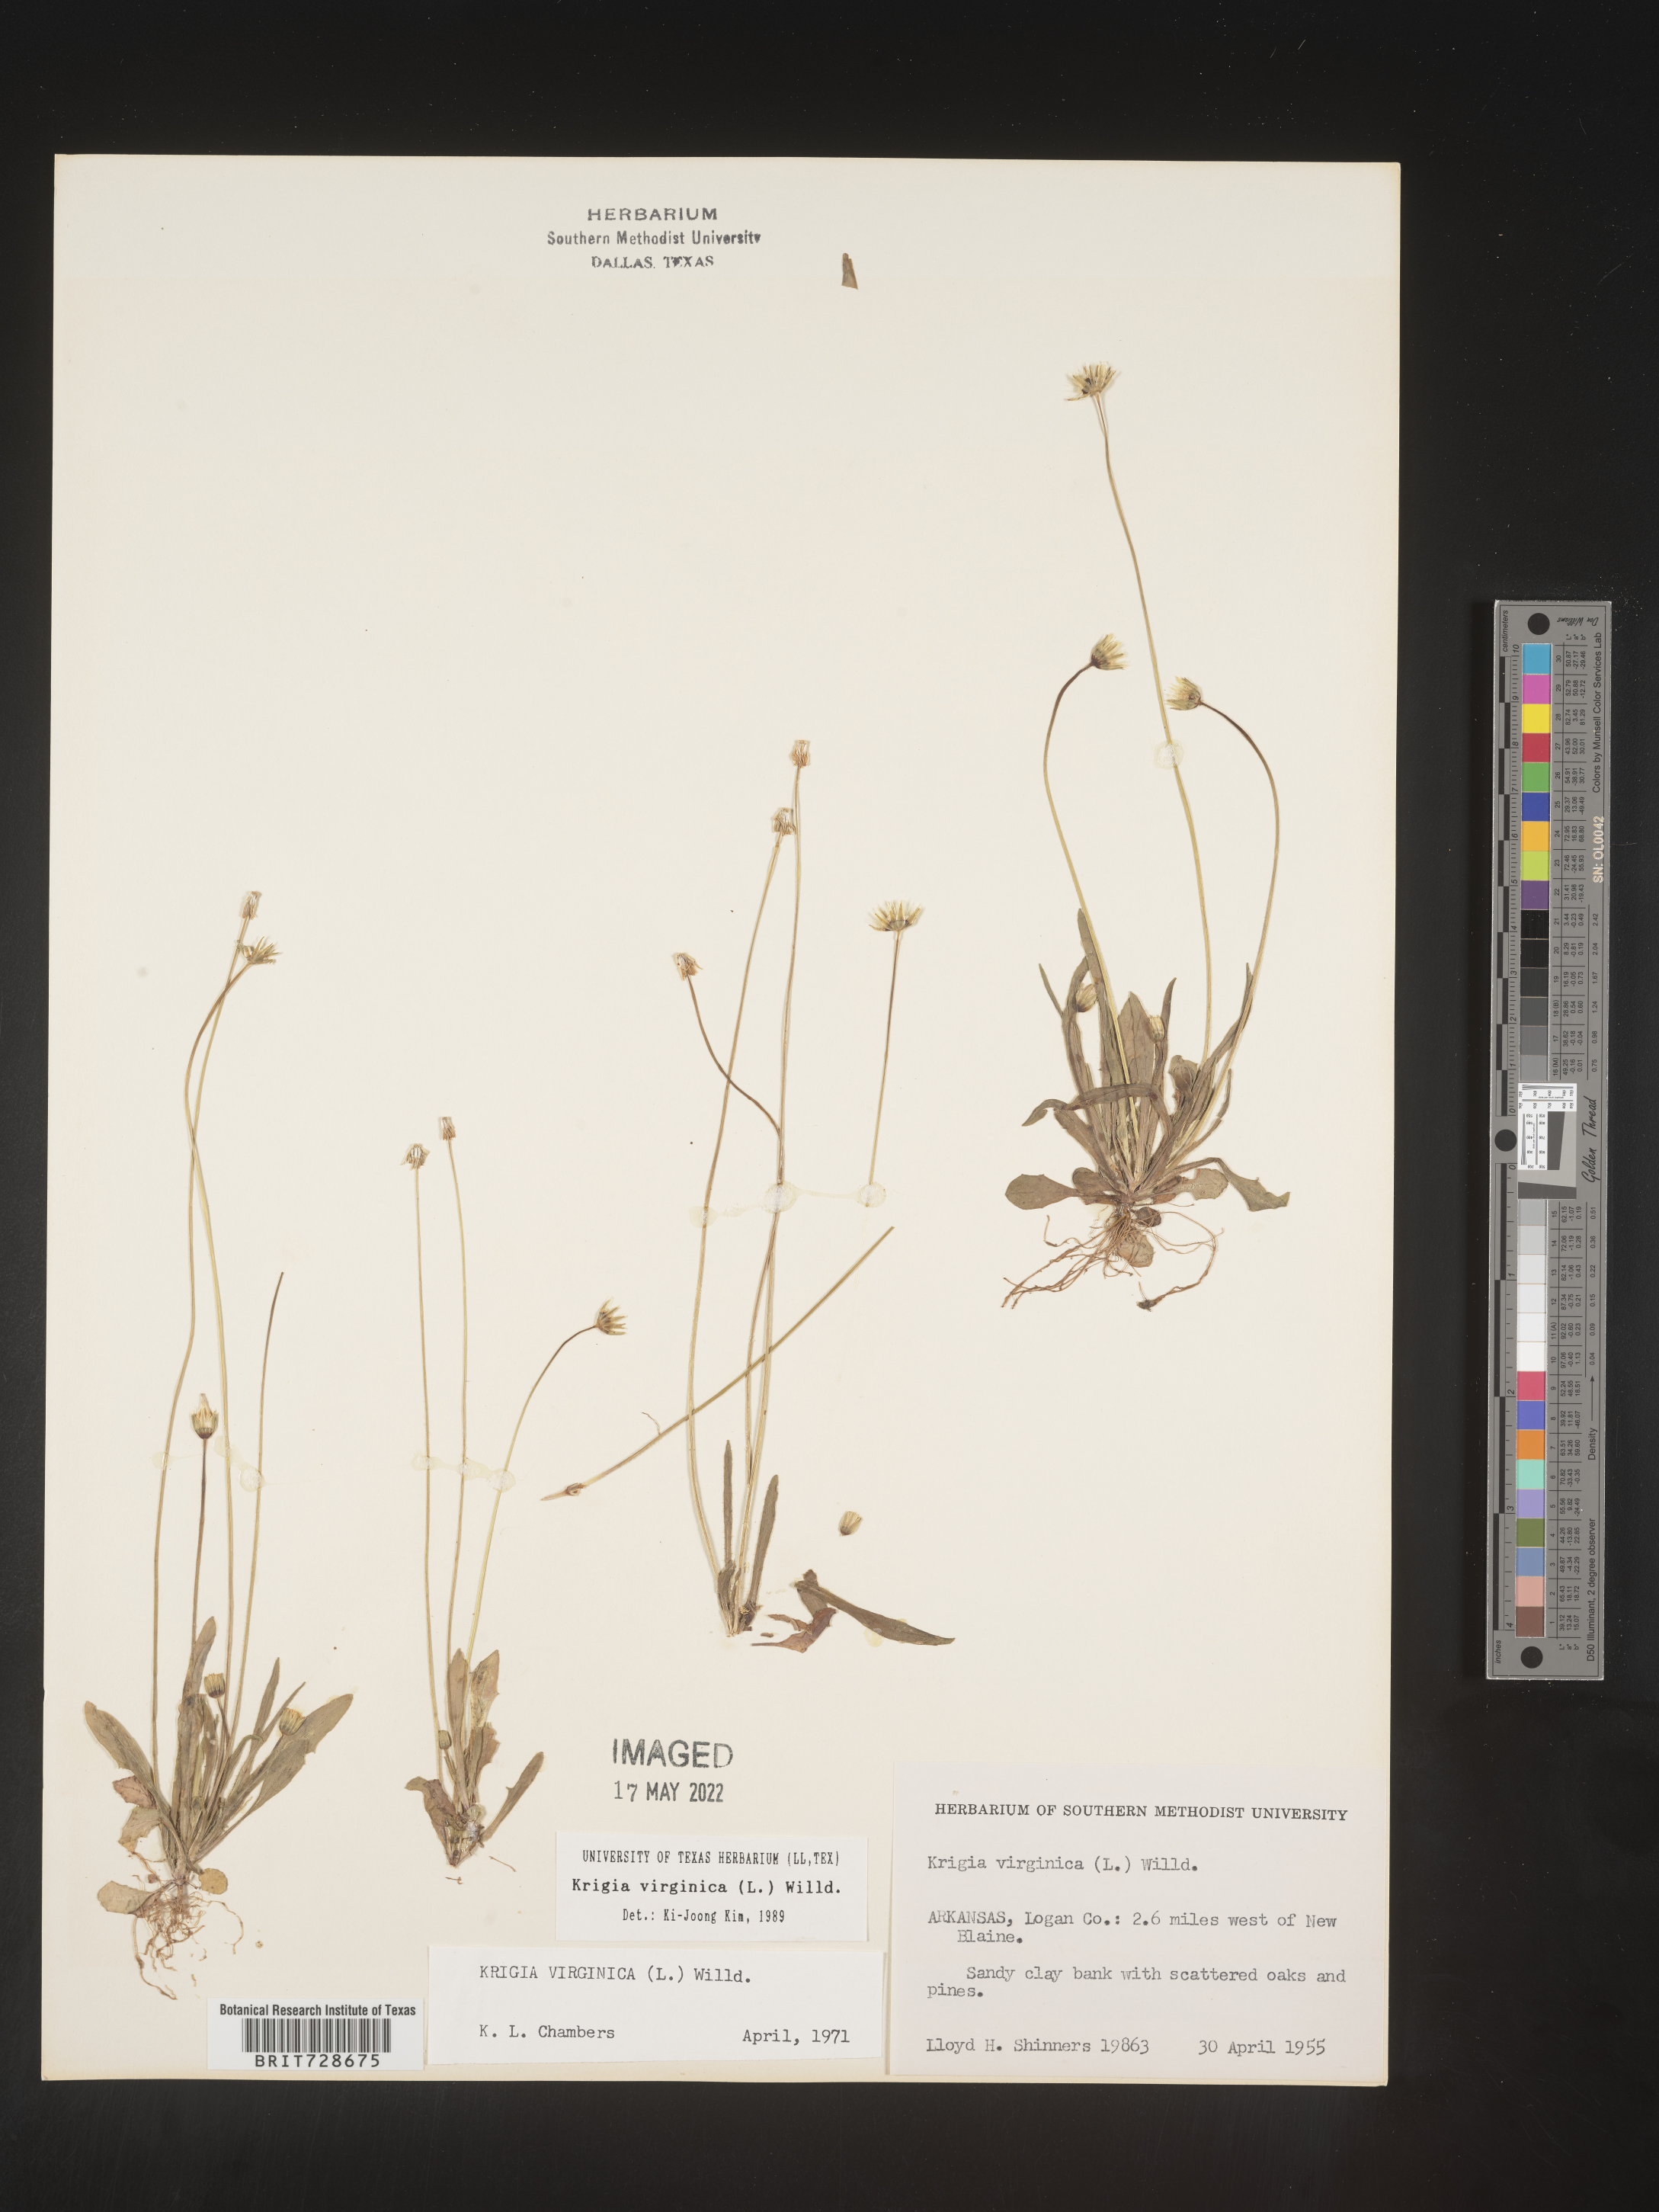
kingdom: Plantae
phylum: Tracheophyta
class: Magnoliopsida
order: Asterales
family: Asteraceae
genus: Krigia
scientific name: Krigia virginica
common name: Virginia dwarf-dandelion
